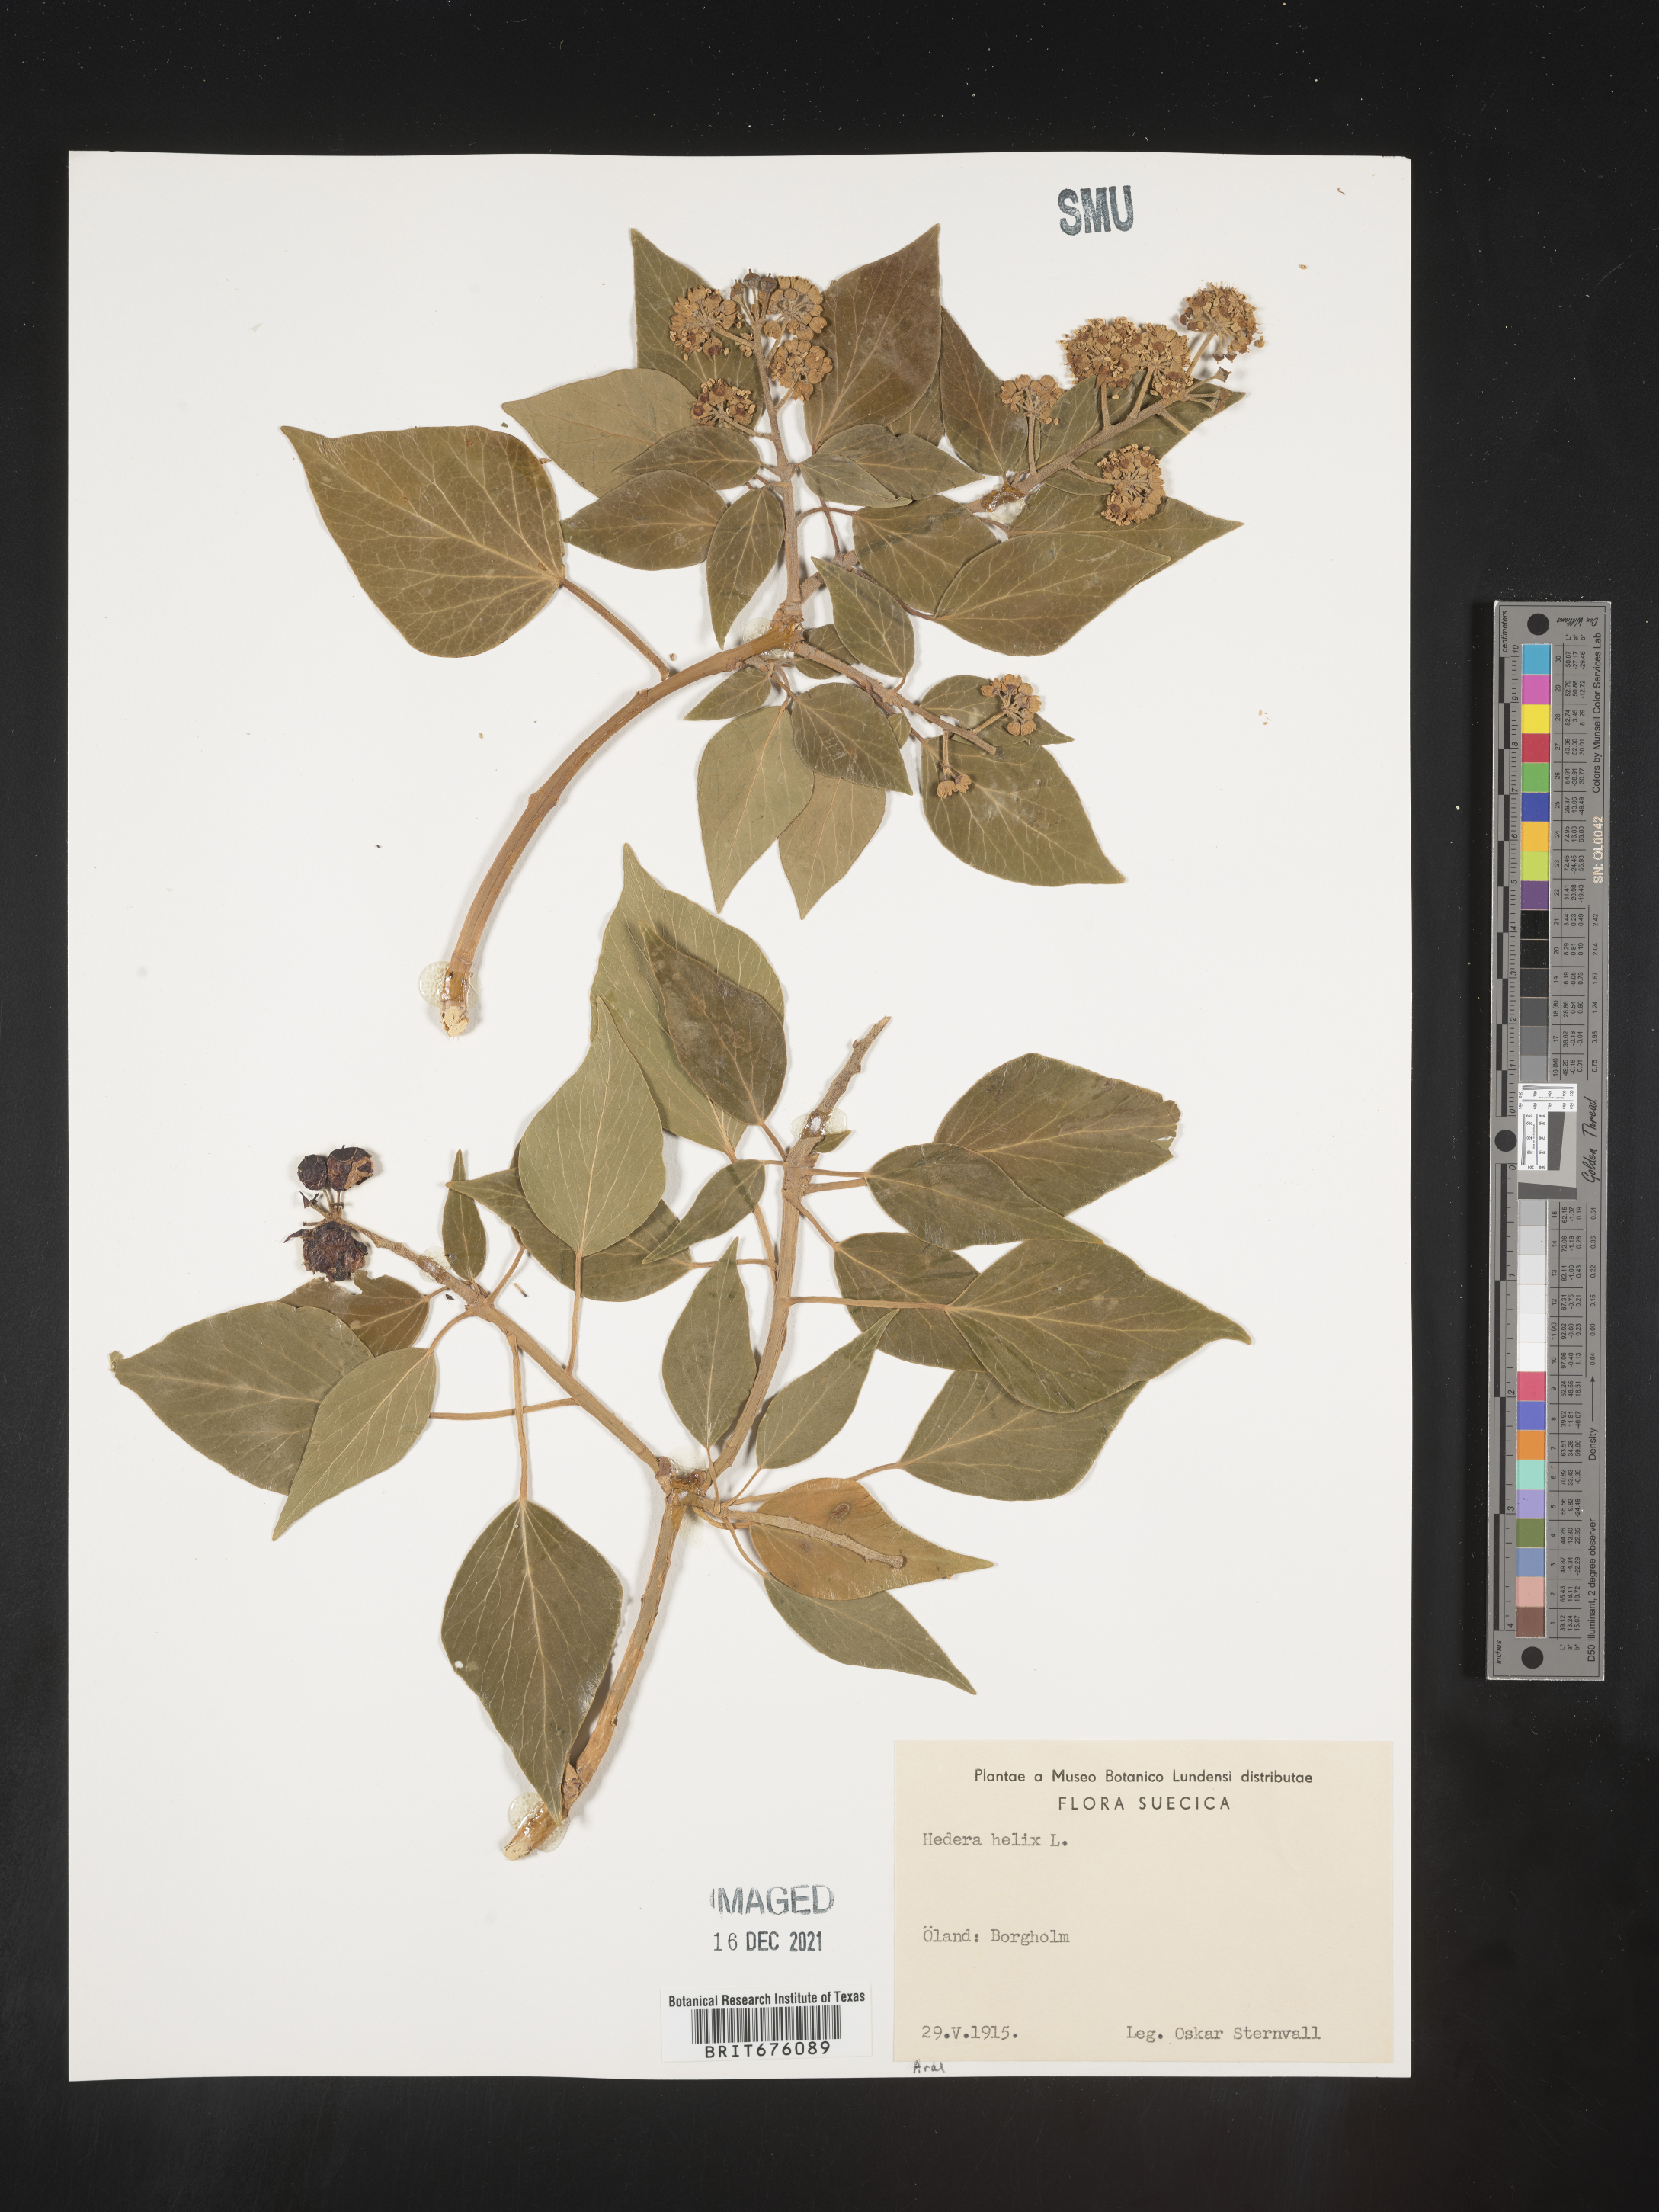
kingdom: Plantae
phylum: Tracheophyta
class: Magnoliopsida
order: Apiales
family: Araliaceae
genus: Hedera
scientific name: Hedera
